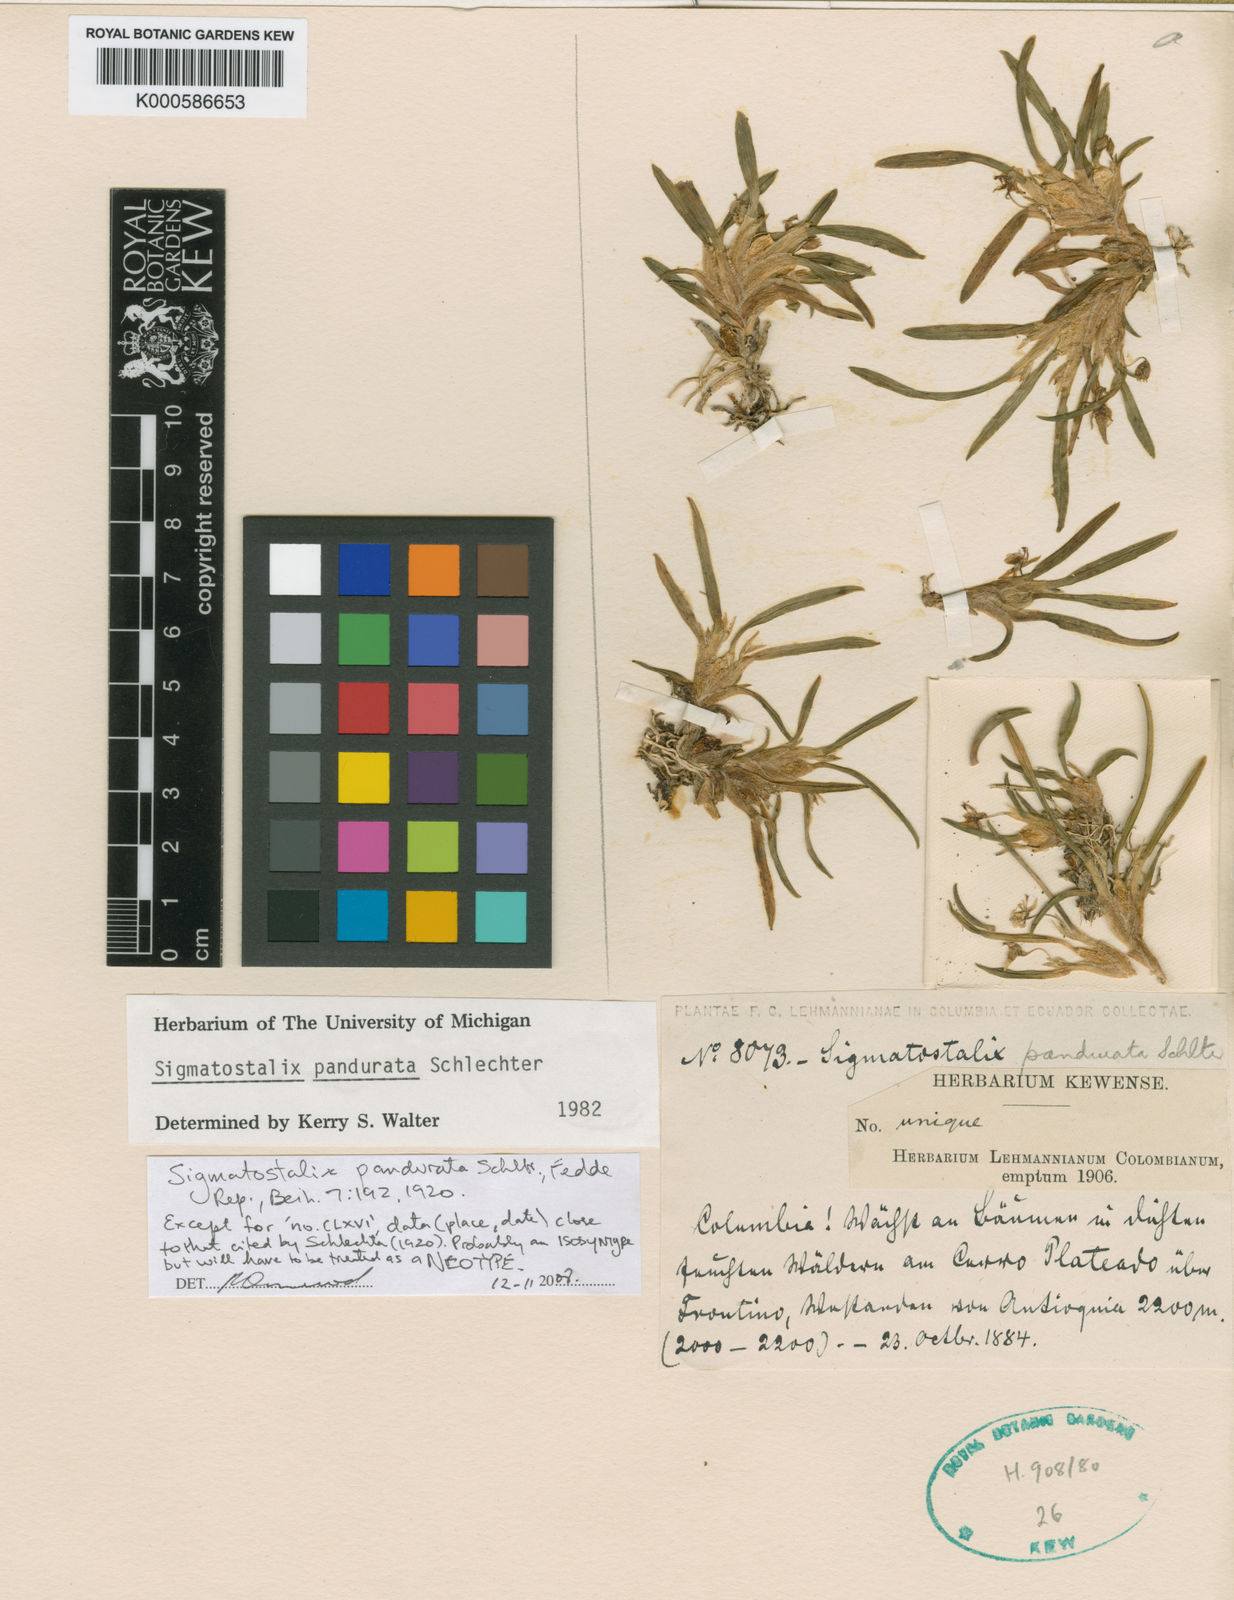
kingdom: Plantae
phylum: Tracheophyta
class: Liliopsida
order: Asparagales
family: Orchidaceae
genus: Oncidium
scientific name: Oncidium panduratoides
